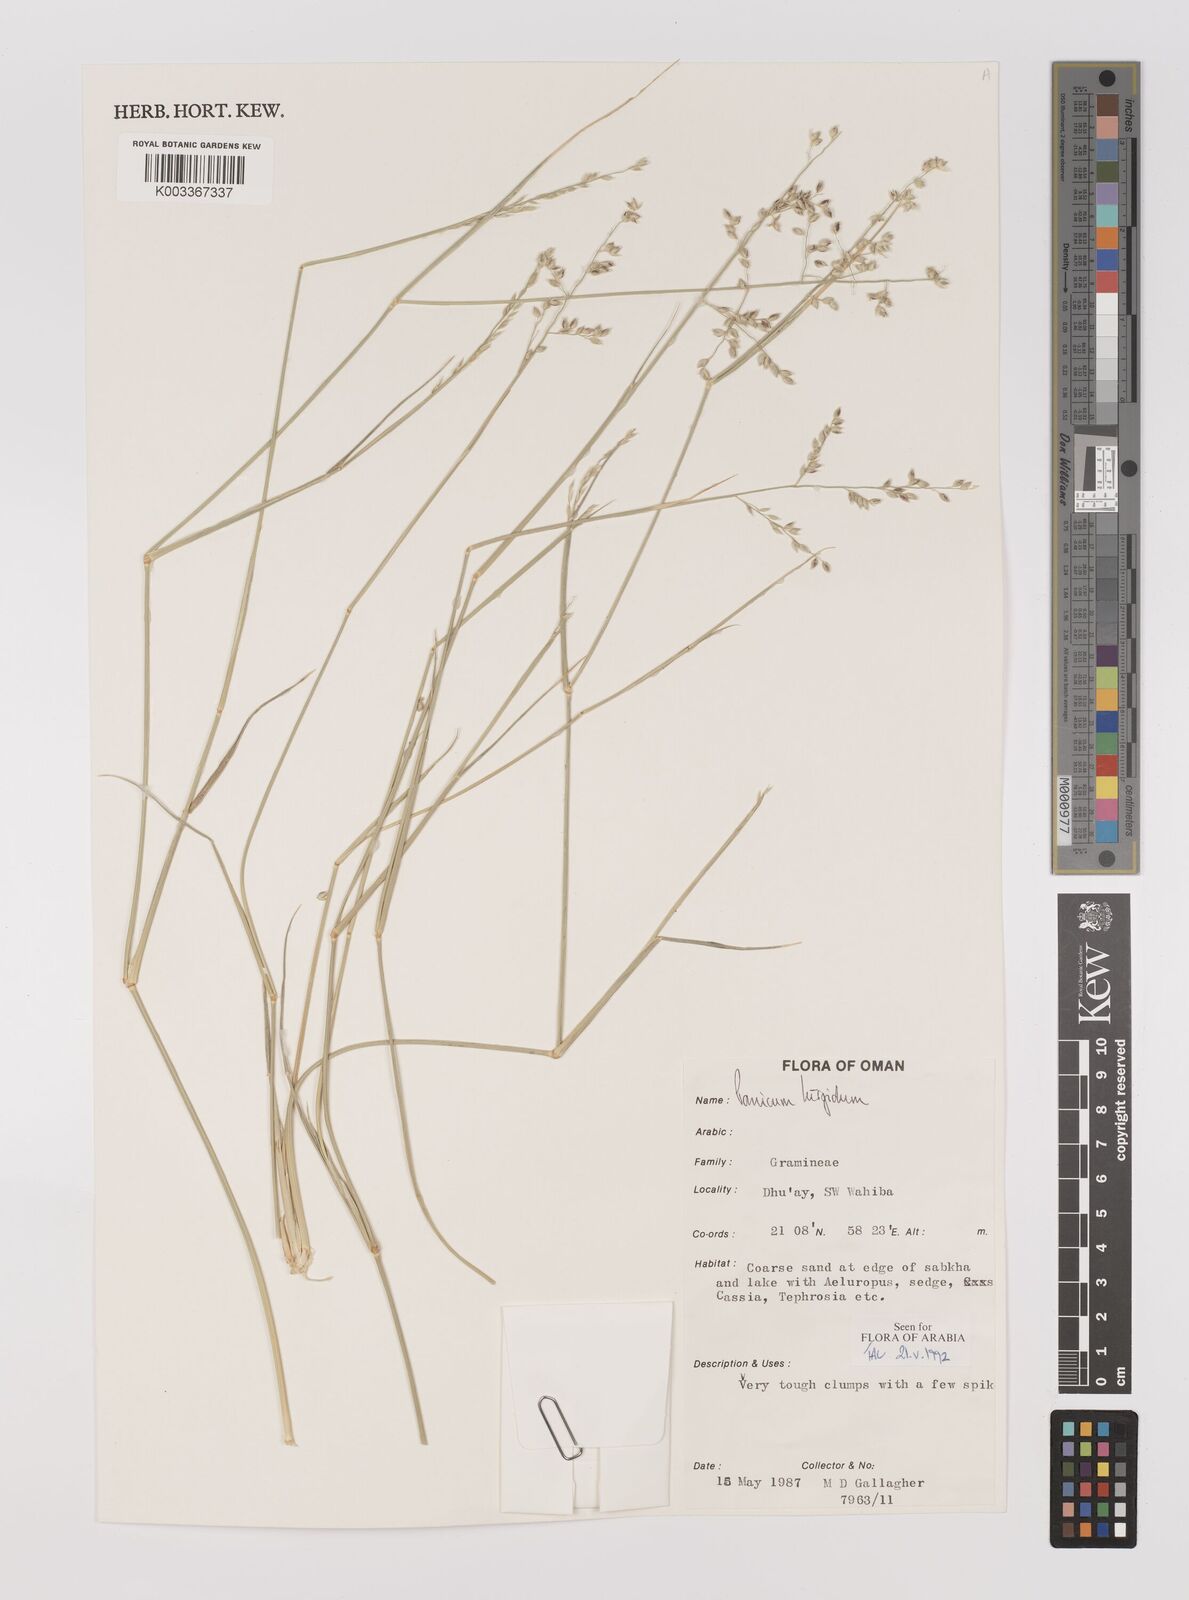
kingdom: Plantae
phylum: Tracheophyta
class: Liliopsida
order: Poales
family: Poaceae
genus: Panicum
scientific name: Panicum turgidum
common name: Desert grass
